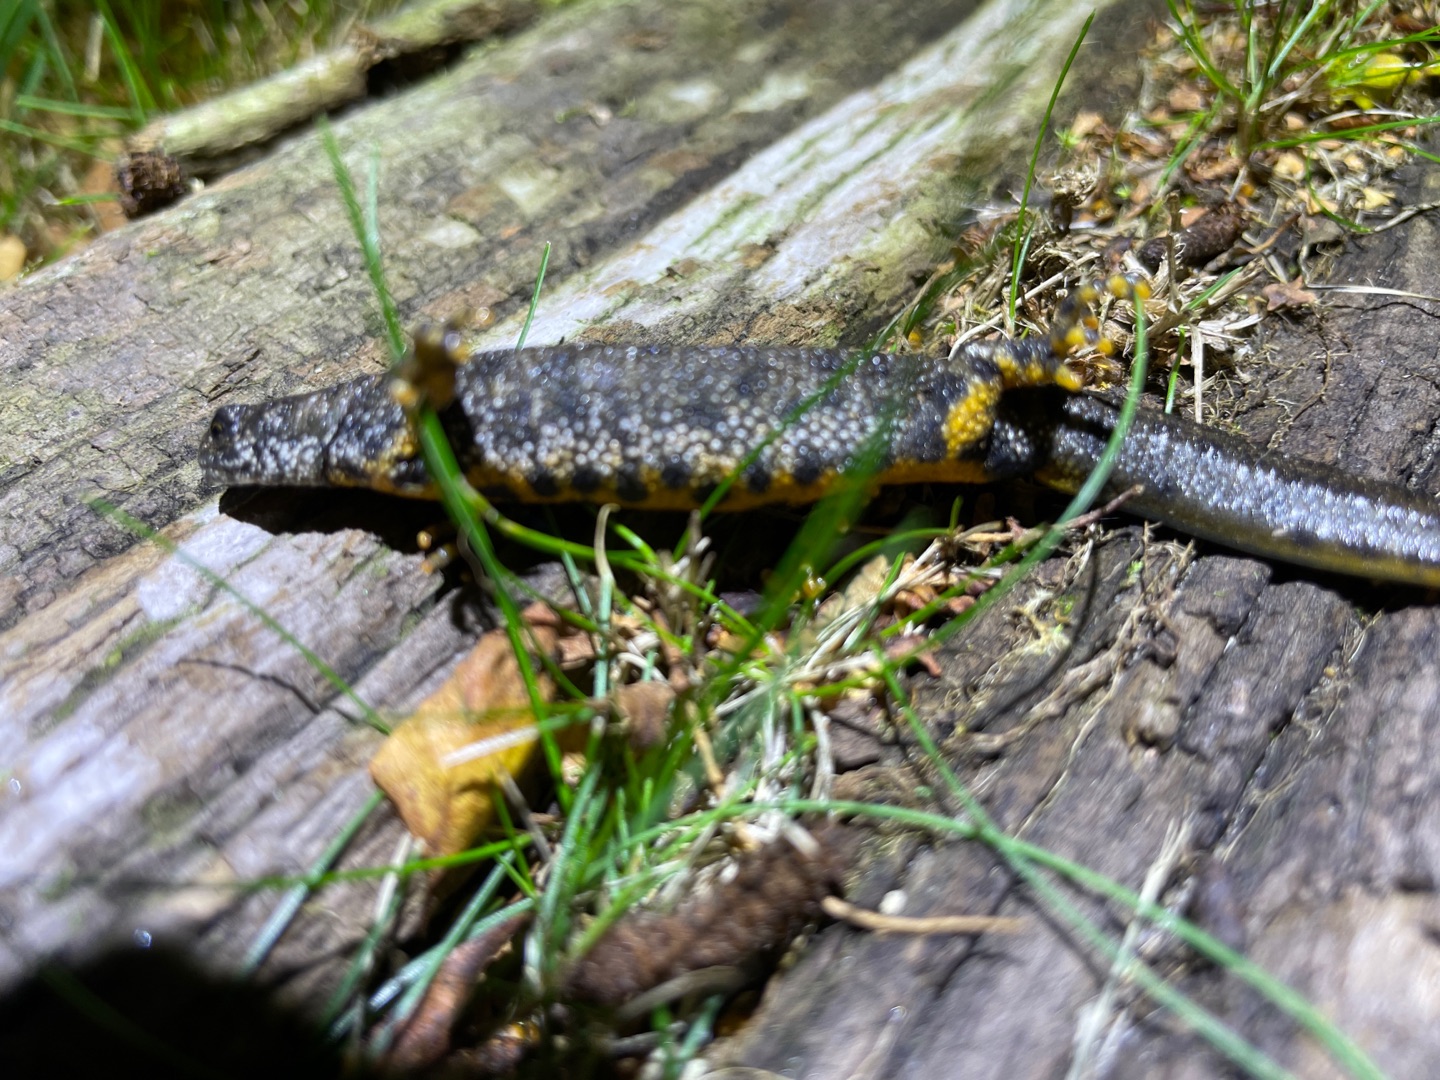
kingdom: Animalia
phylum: Chordata
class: Amphibia
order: Caudata
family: Salamandridae
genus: Triturus
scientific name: Triturus cristatus
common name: Stor vandsalamander
